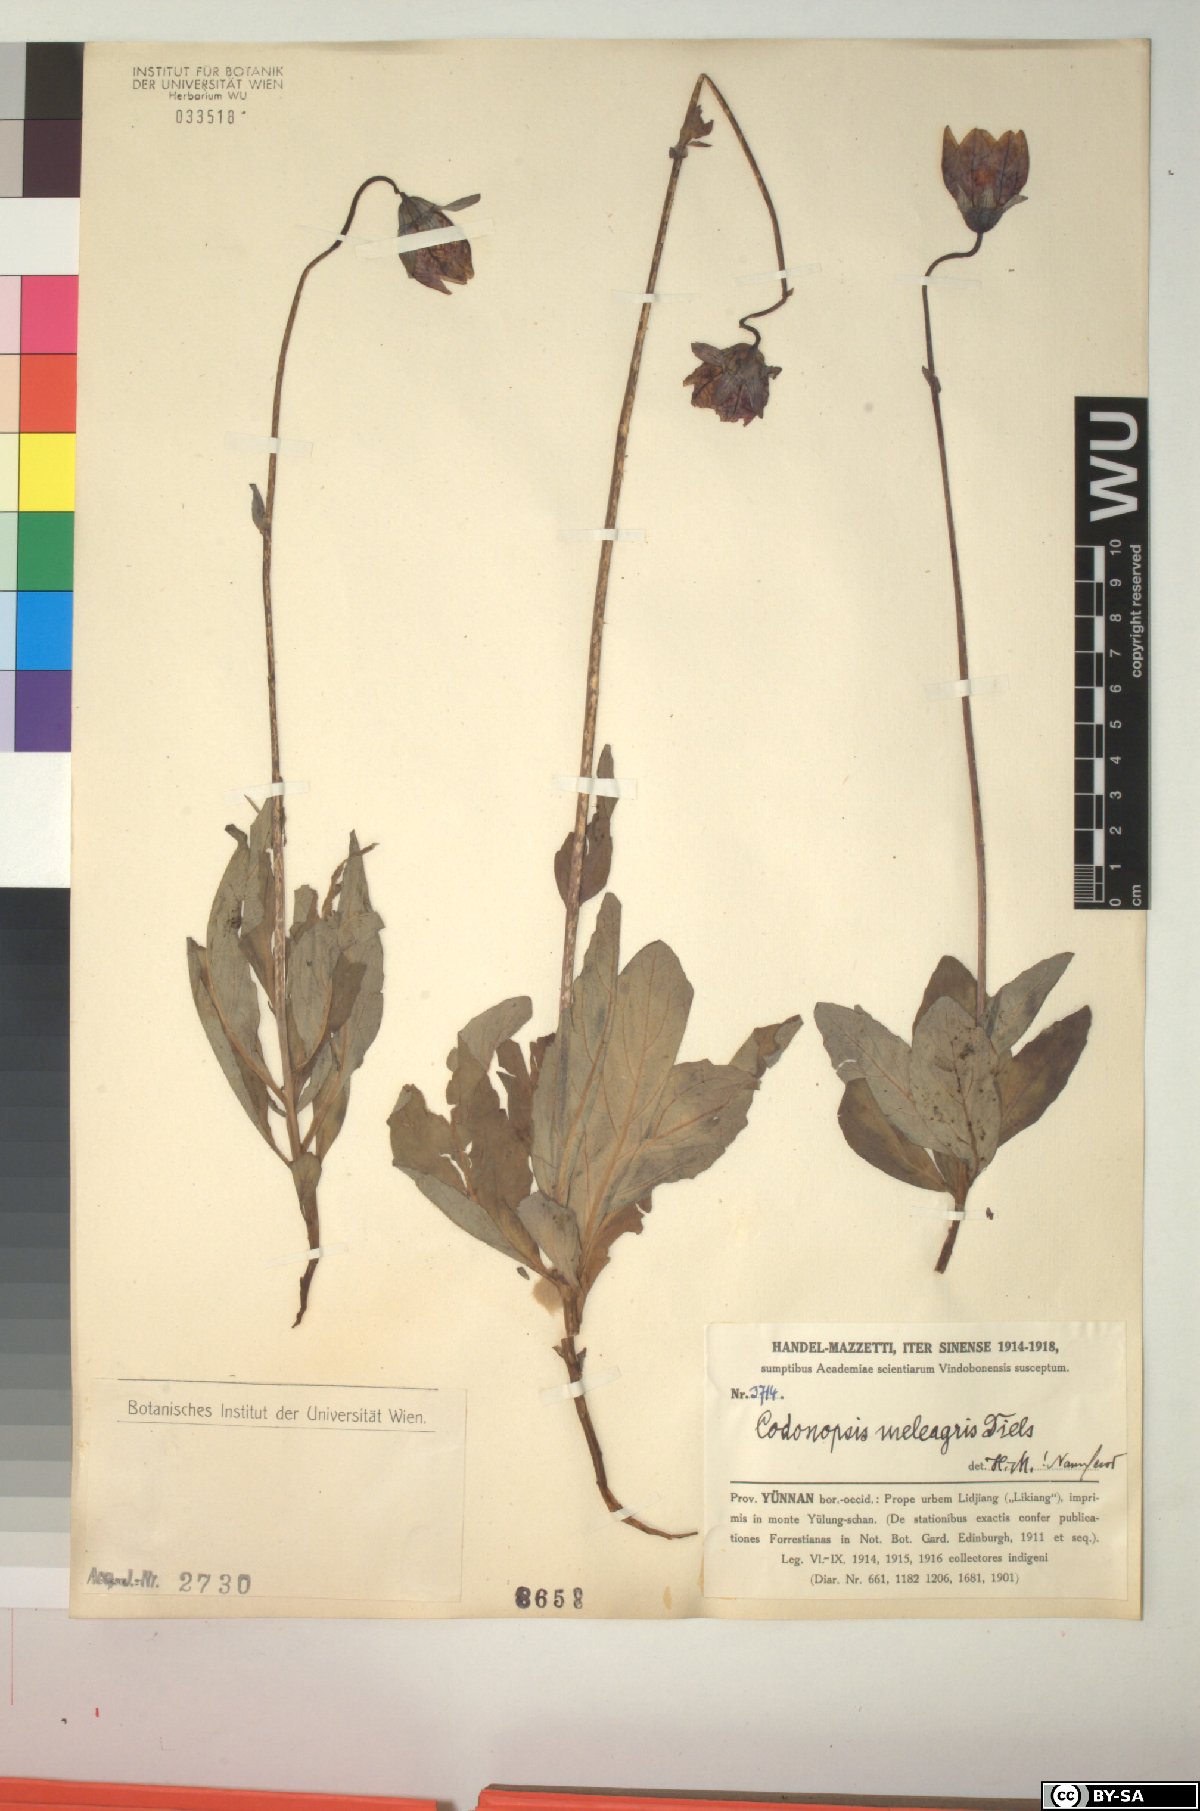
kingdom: Plantae
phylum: Tracheophyta
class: Magnoliopsida
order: Asterales
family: Campanulaceae
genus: Codonopsis
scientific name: Codonopsis meleagris
